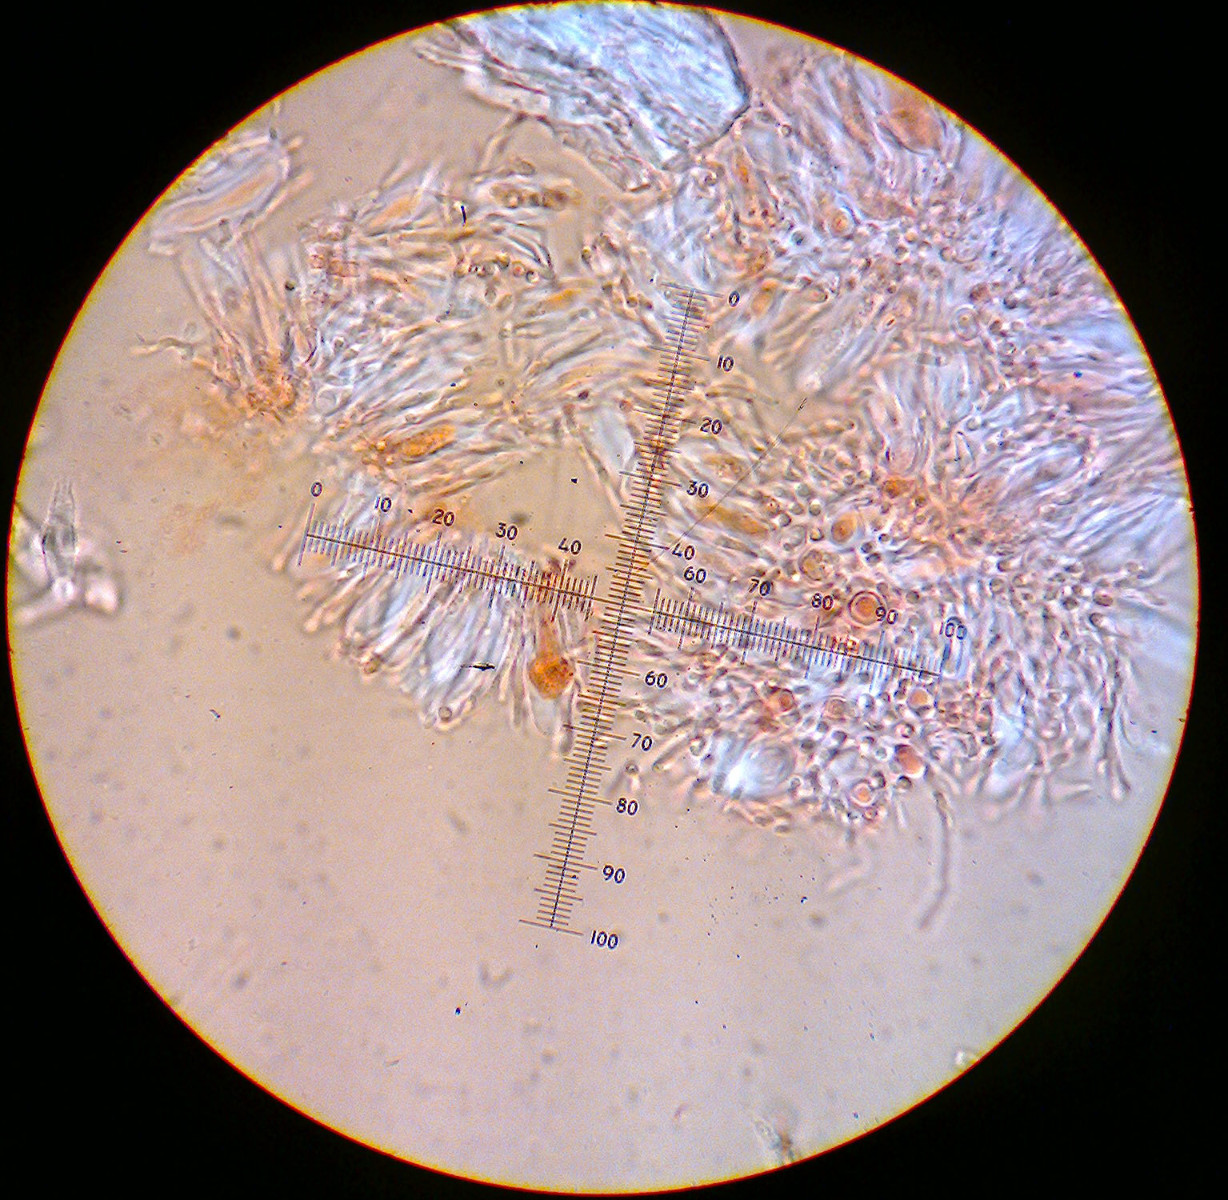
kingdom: Fungi
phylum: Ascomycota
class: Lecanoromycetes
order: Ostropales
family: Stictidaceae
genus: Cryptodiscus
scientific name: Cryptodiscus cladoniicola
